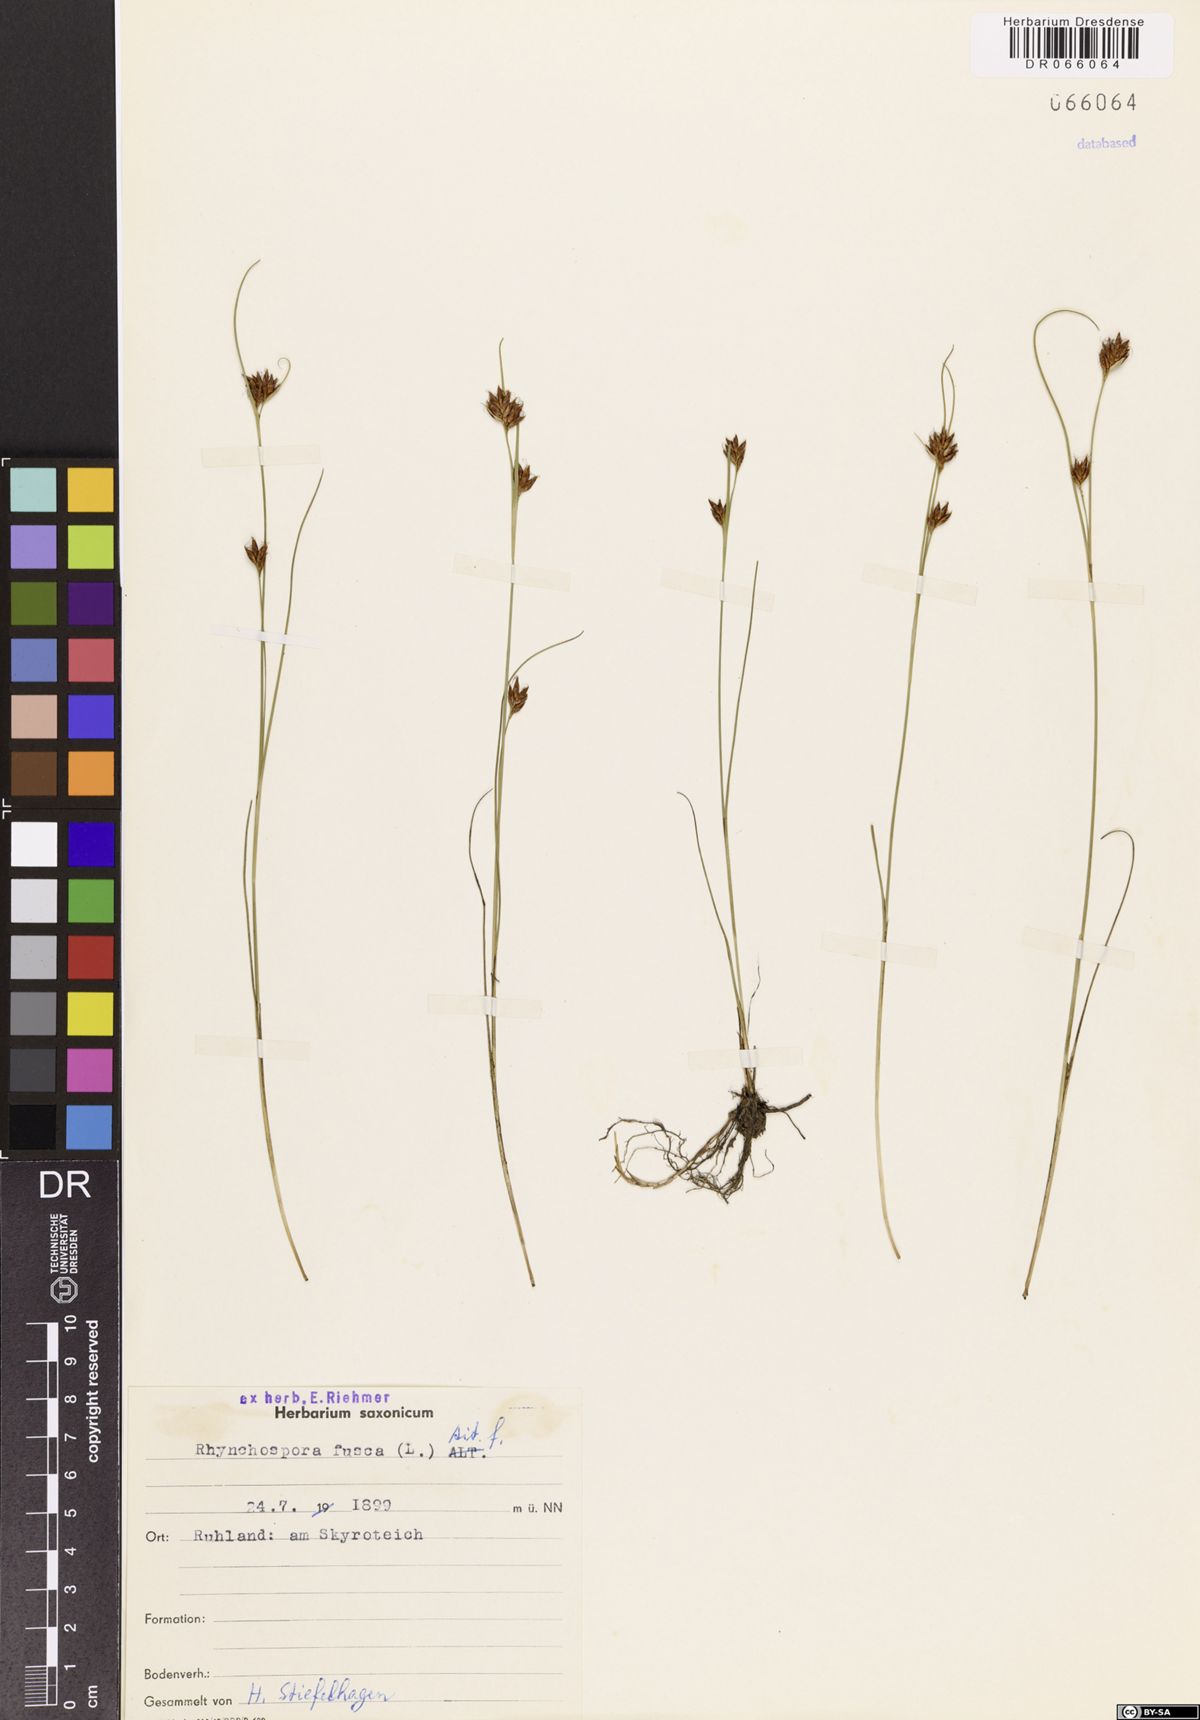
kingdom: Plantae
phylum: Tracheophyta
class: Liliopsida
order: Poales
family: Cyperaceae
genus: Rhynchospora
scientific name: Rhynchospora fusca
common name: Brown beak-sedge
